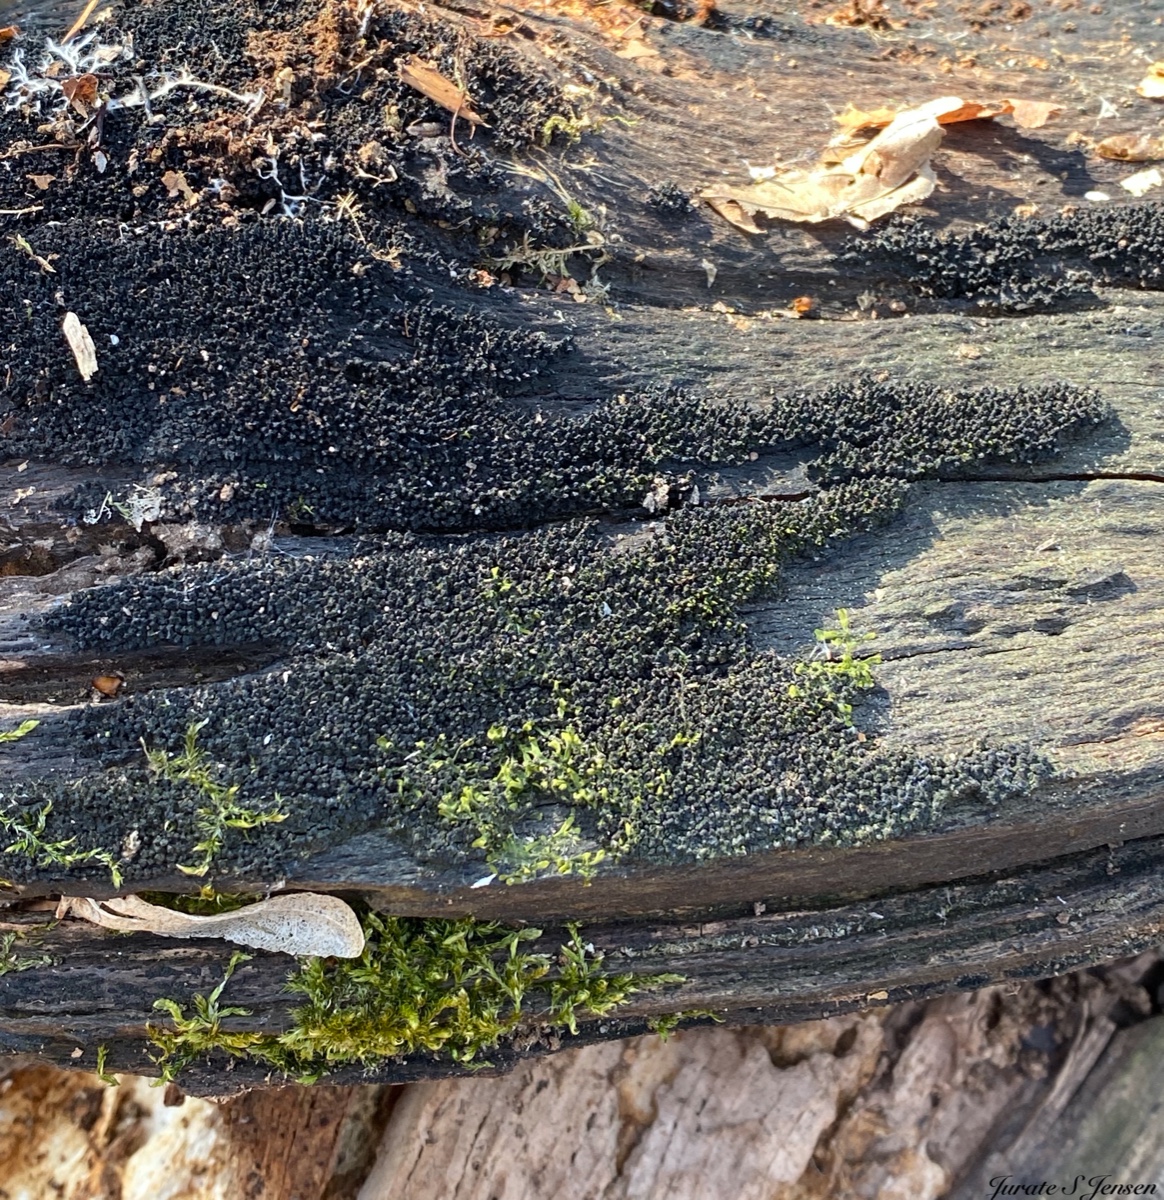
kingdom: Fungi
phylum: Ascomycota
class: Sordariomycetes
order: Xylariales
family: Diatrypaceae
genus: Eutypa
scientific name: Eutypa spinosa
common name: grov kulskorpe
